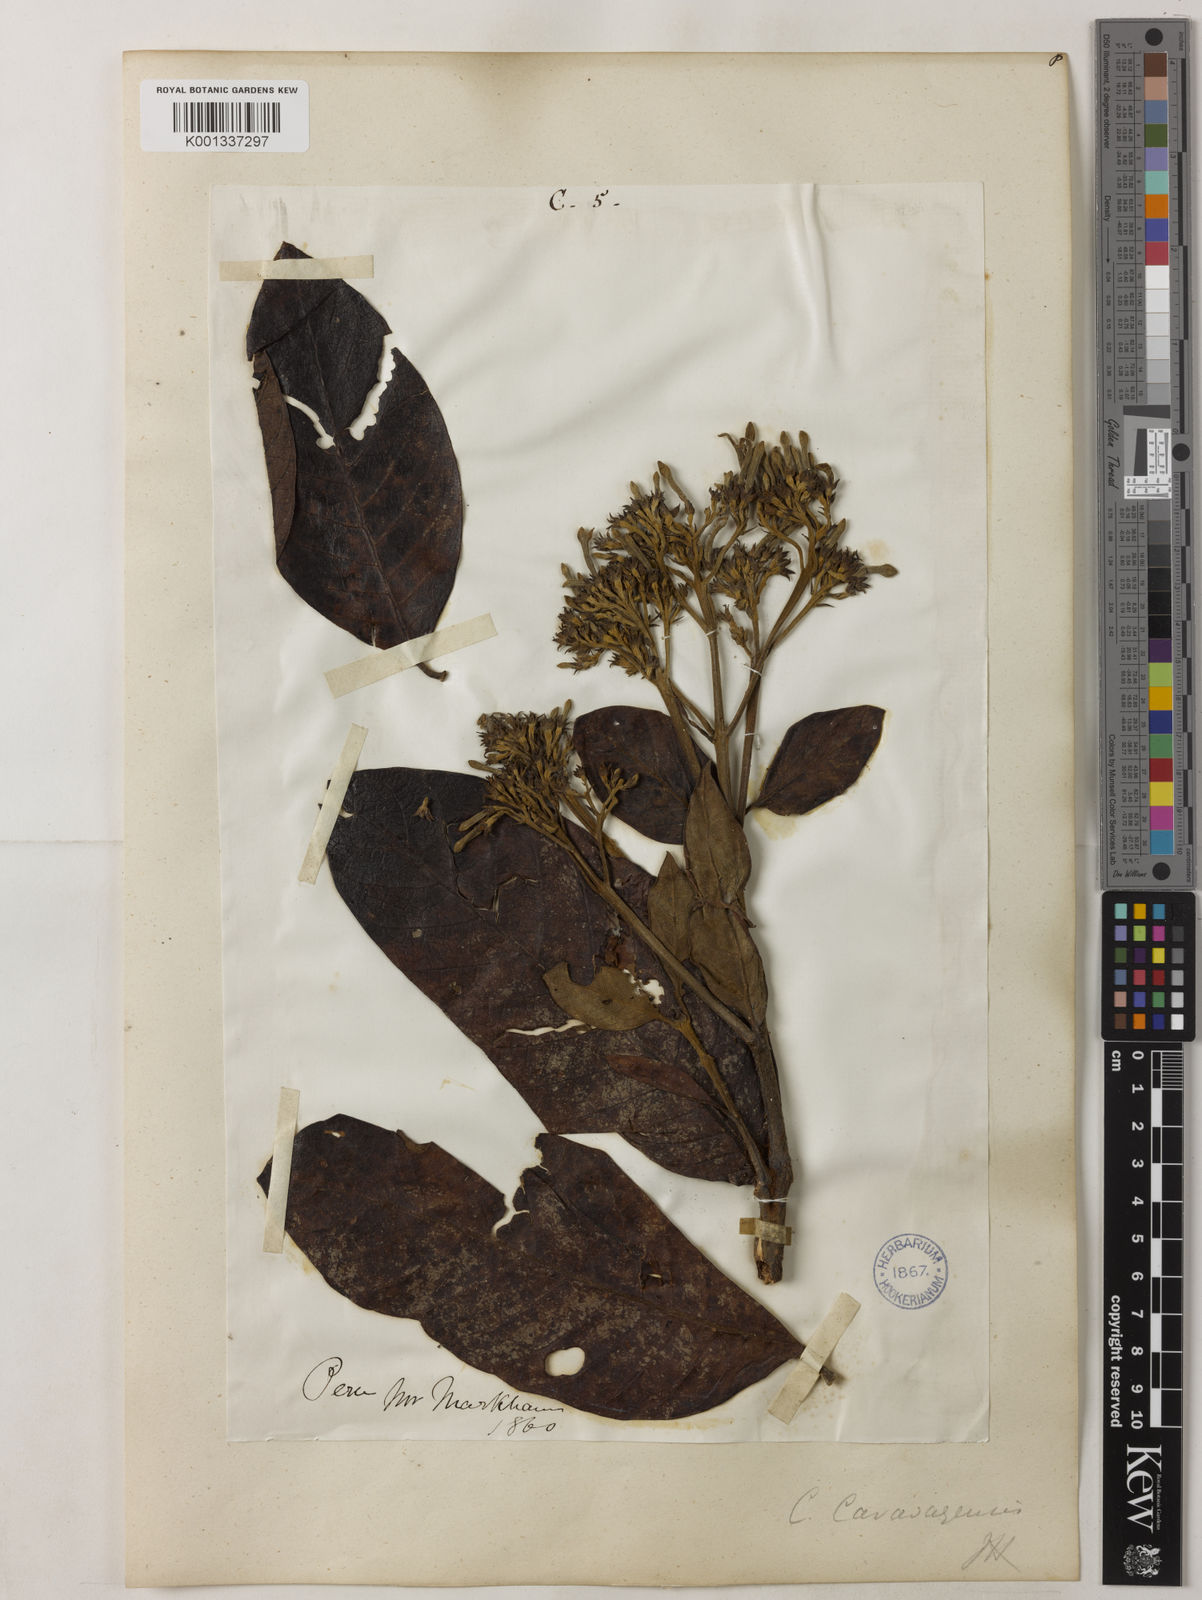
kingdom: Plantae
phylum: Tracheophyta
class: Magnoliopsida
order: Gentianales
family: Rubiaceae
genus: Cinchona
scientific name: Cinchona calisaya
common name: Ledgerbark
